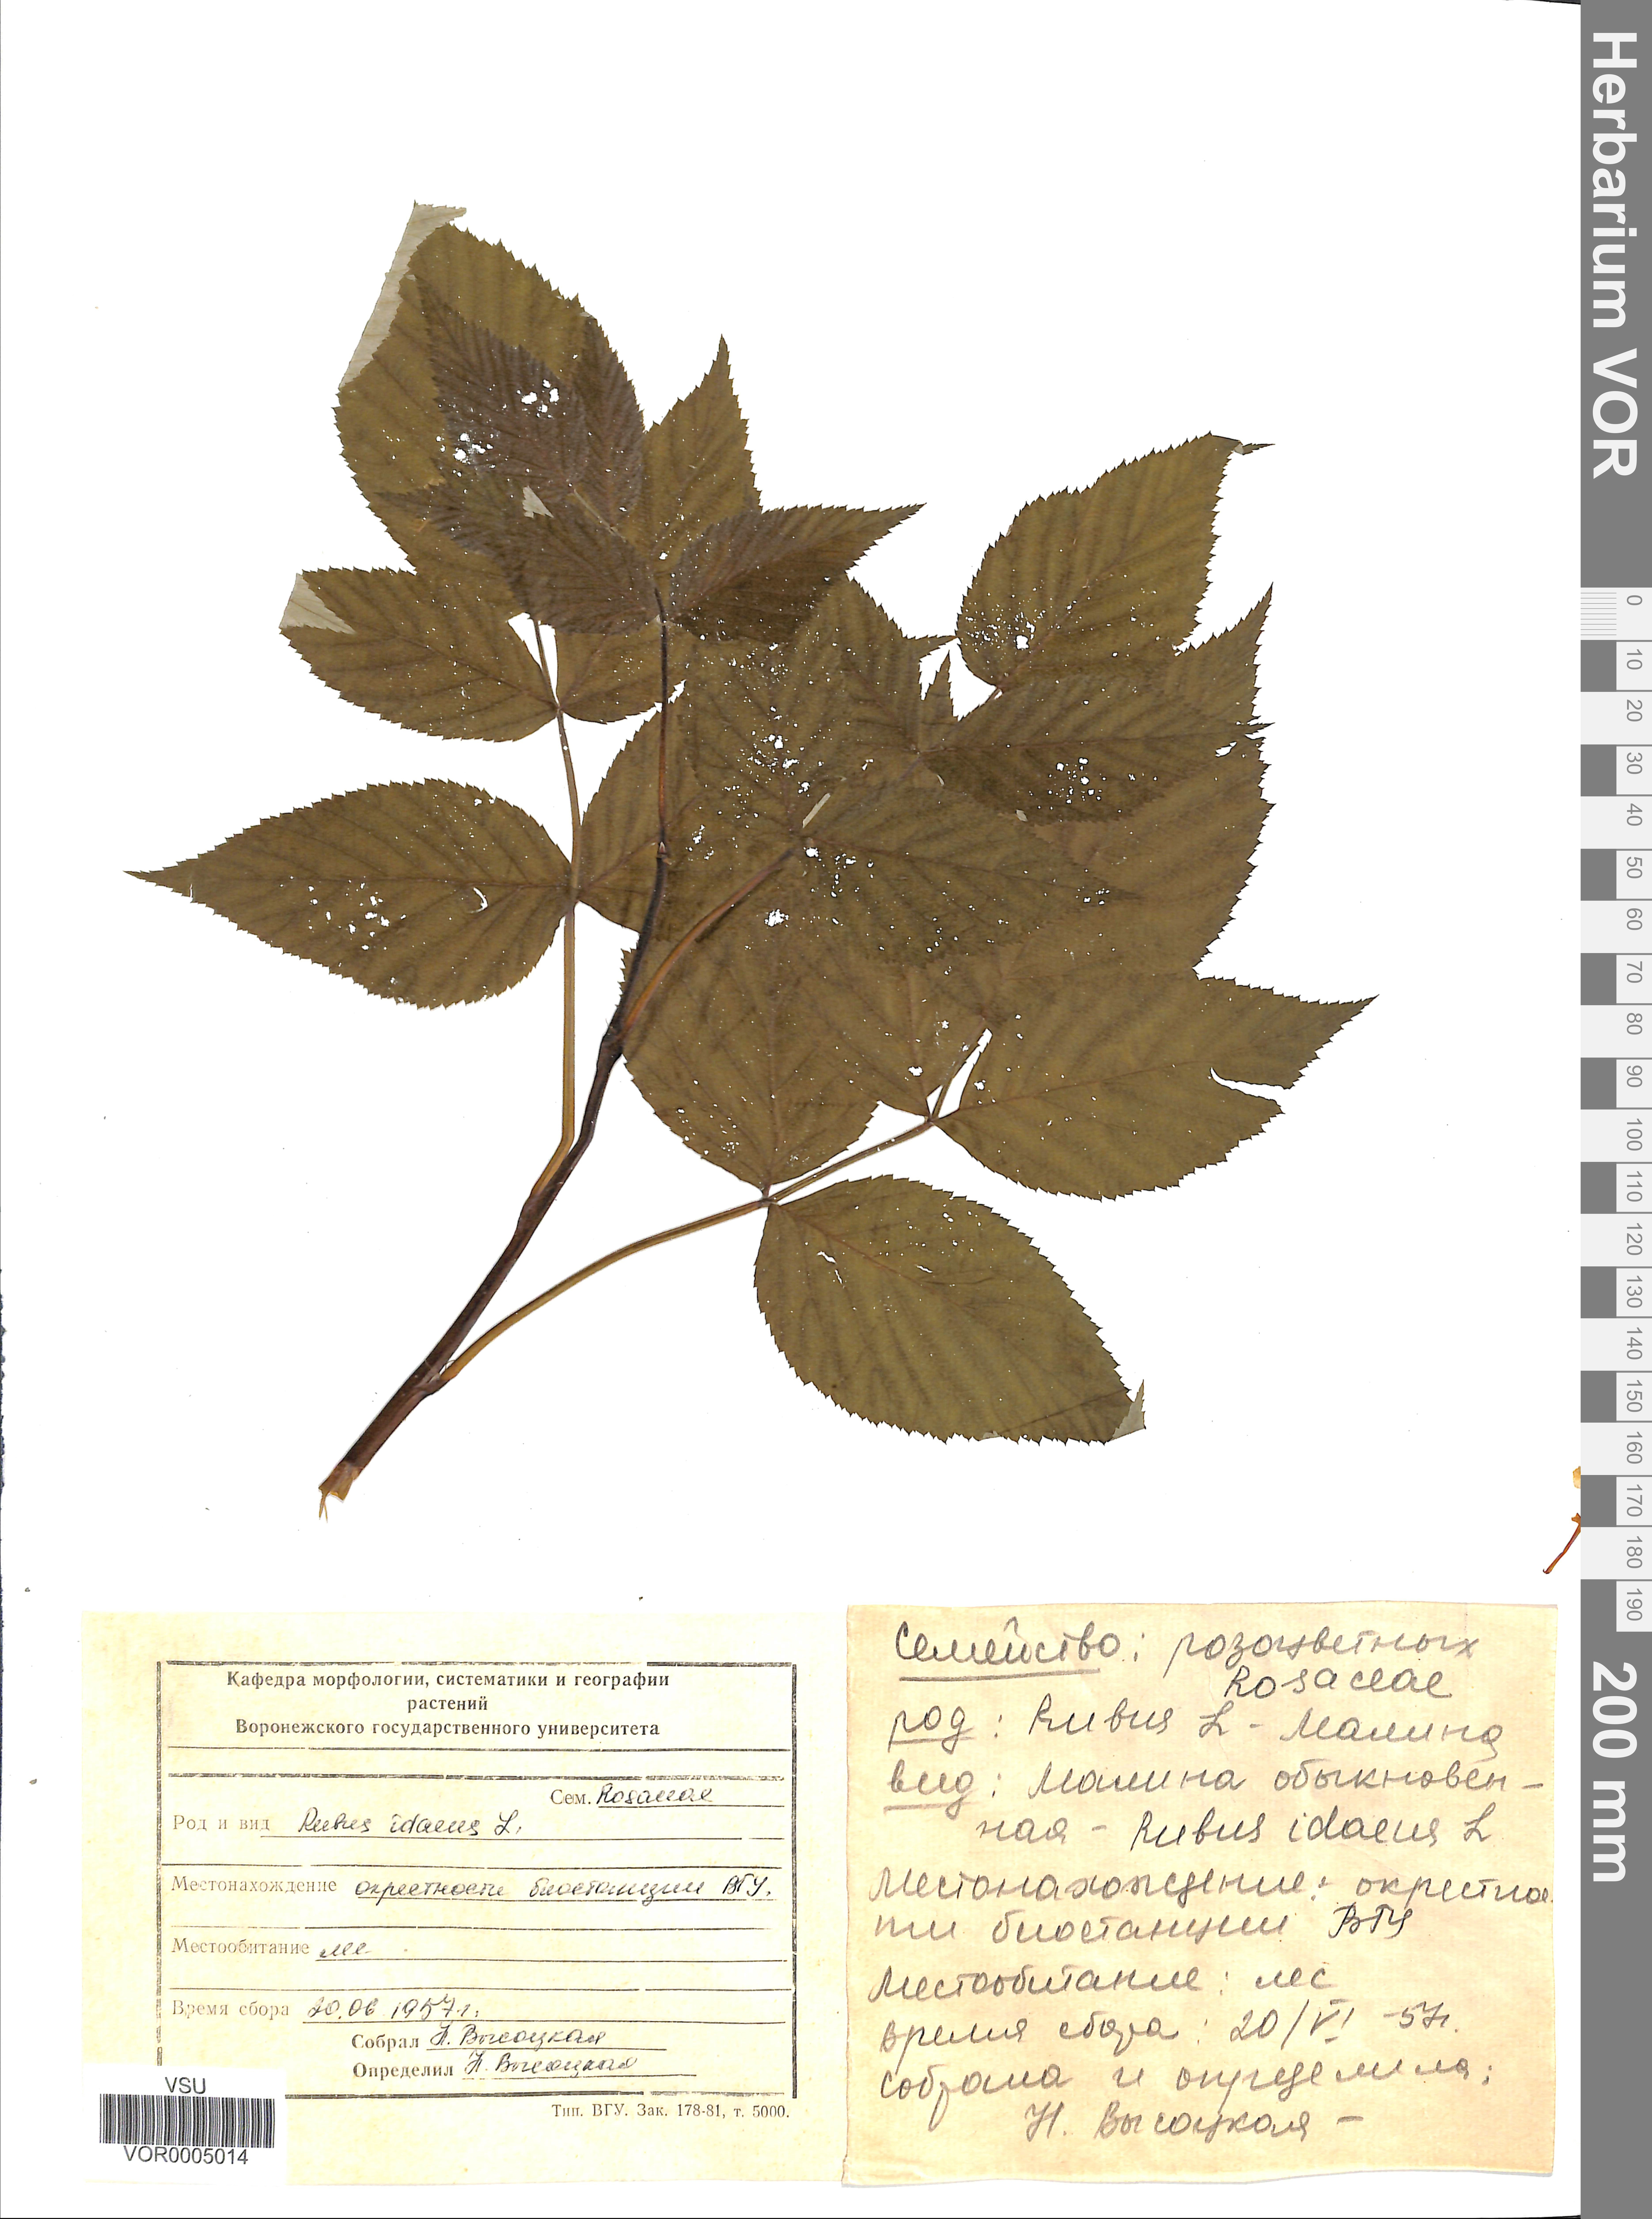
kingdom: Plantae
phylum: Tracheophyta
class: Magnoliopsida
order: Rosales
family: Rosaceae
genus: Rubus
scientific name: Rubus idaeus
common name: Raspberry
